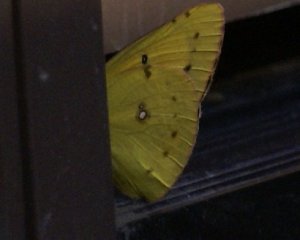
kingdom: Animalia
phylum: Arthropoda
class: Insecta
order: Lepidoptera
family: Pieridae
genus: Colias
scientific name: Colias eurytheme
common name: Orange Sulphur
